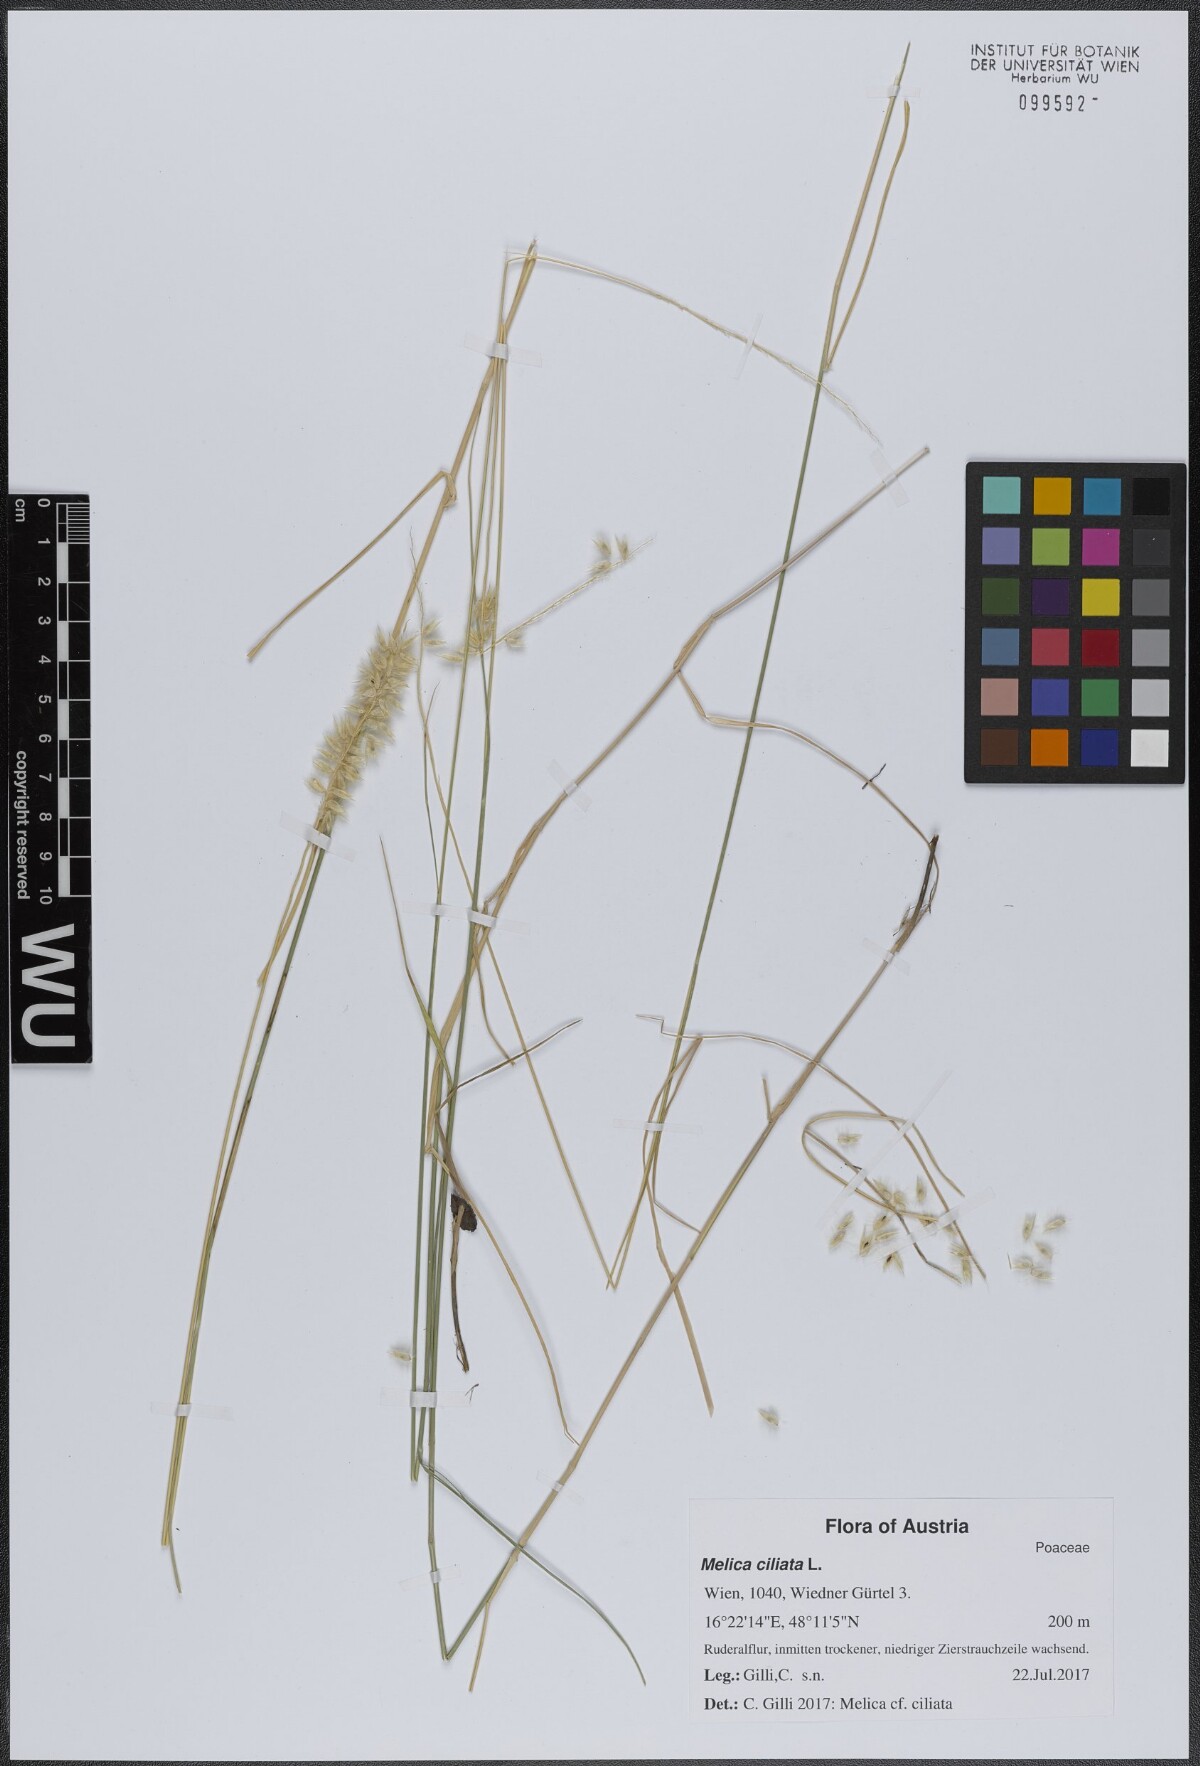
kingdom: Plantae
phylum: Tracheophyta
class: Liliopsida
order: Poales
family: Poaceae
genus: Melica
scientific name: Melica ciliata
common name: Hairy melicgrass
